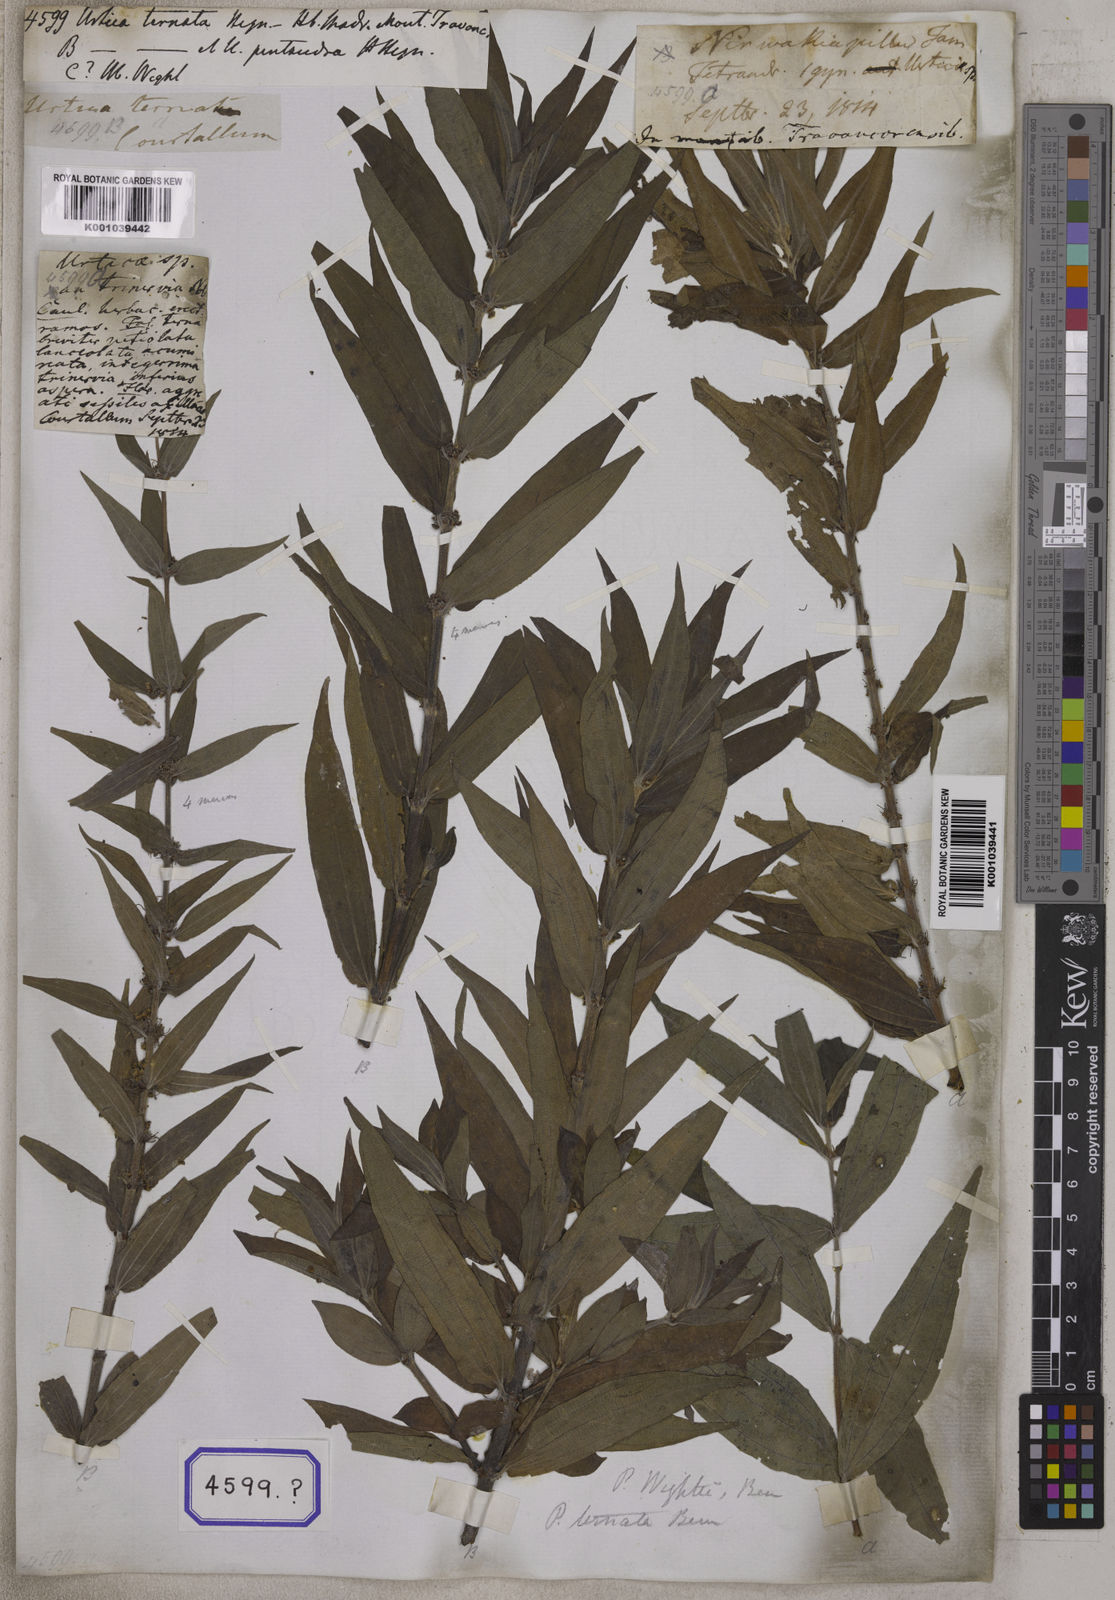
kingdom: Plantae
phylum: Tracheophyta
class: Magnoliopsida
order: Rosales
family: Urticaceae
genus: Gonostegia
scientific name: Gonostegia pentandra
